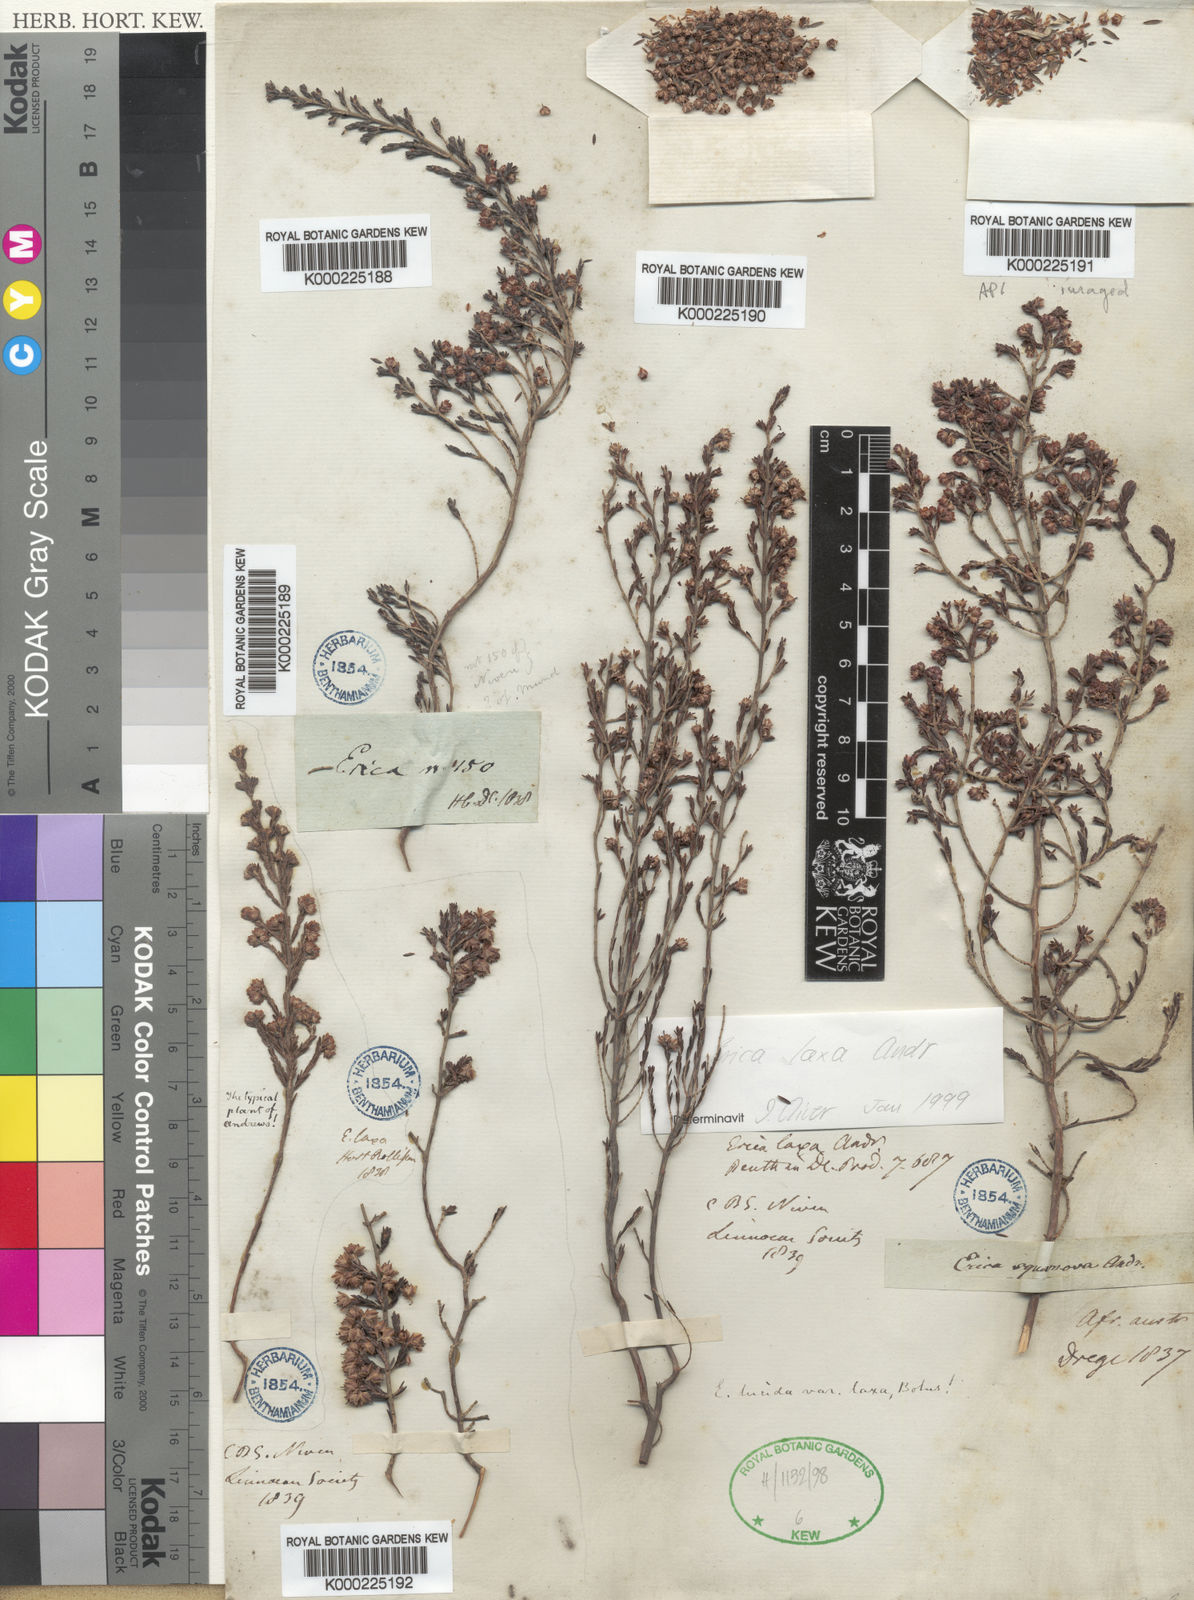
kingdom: Plantae
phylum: Tracheophyta
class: Magnoliopsida
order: Ericales
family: Ericaceae
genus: Erica
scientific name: Erica lucida
